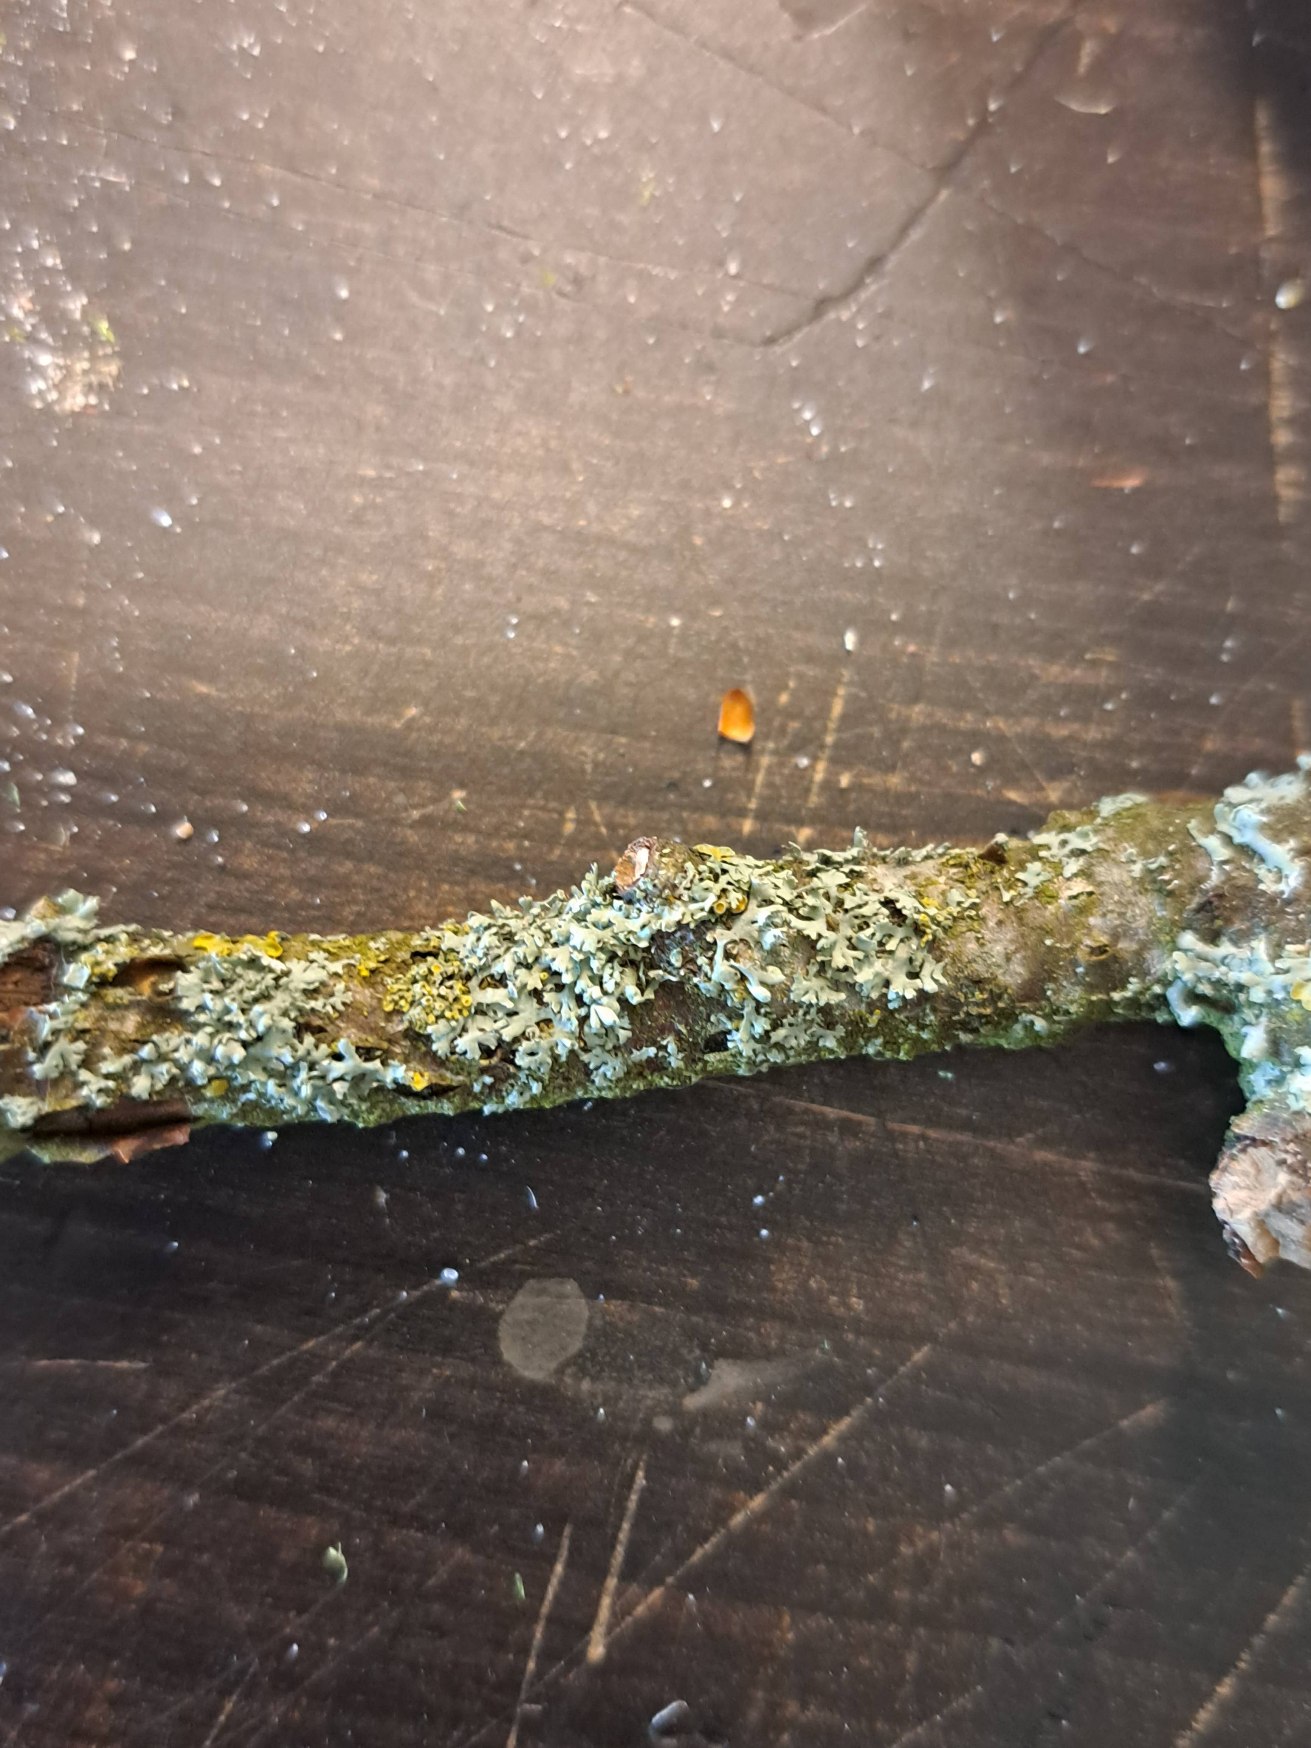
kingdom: Fungi
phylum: Ascomycota
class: Lecanoromycetes
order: Caliciales
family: Physciaceae
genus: Physcia
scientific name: Physcia adscendens
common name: Hætte-rosetlav
